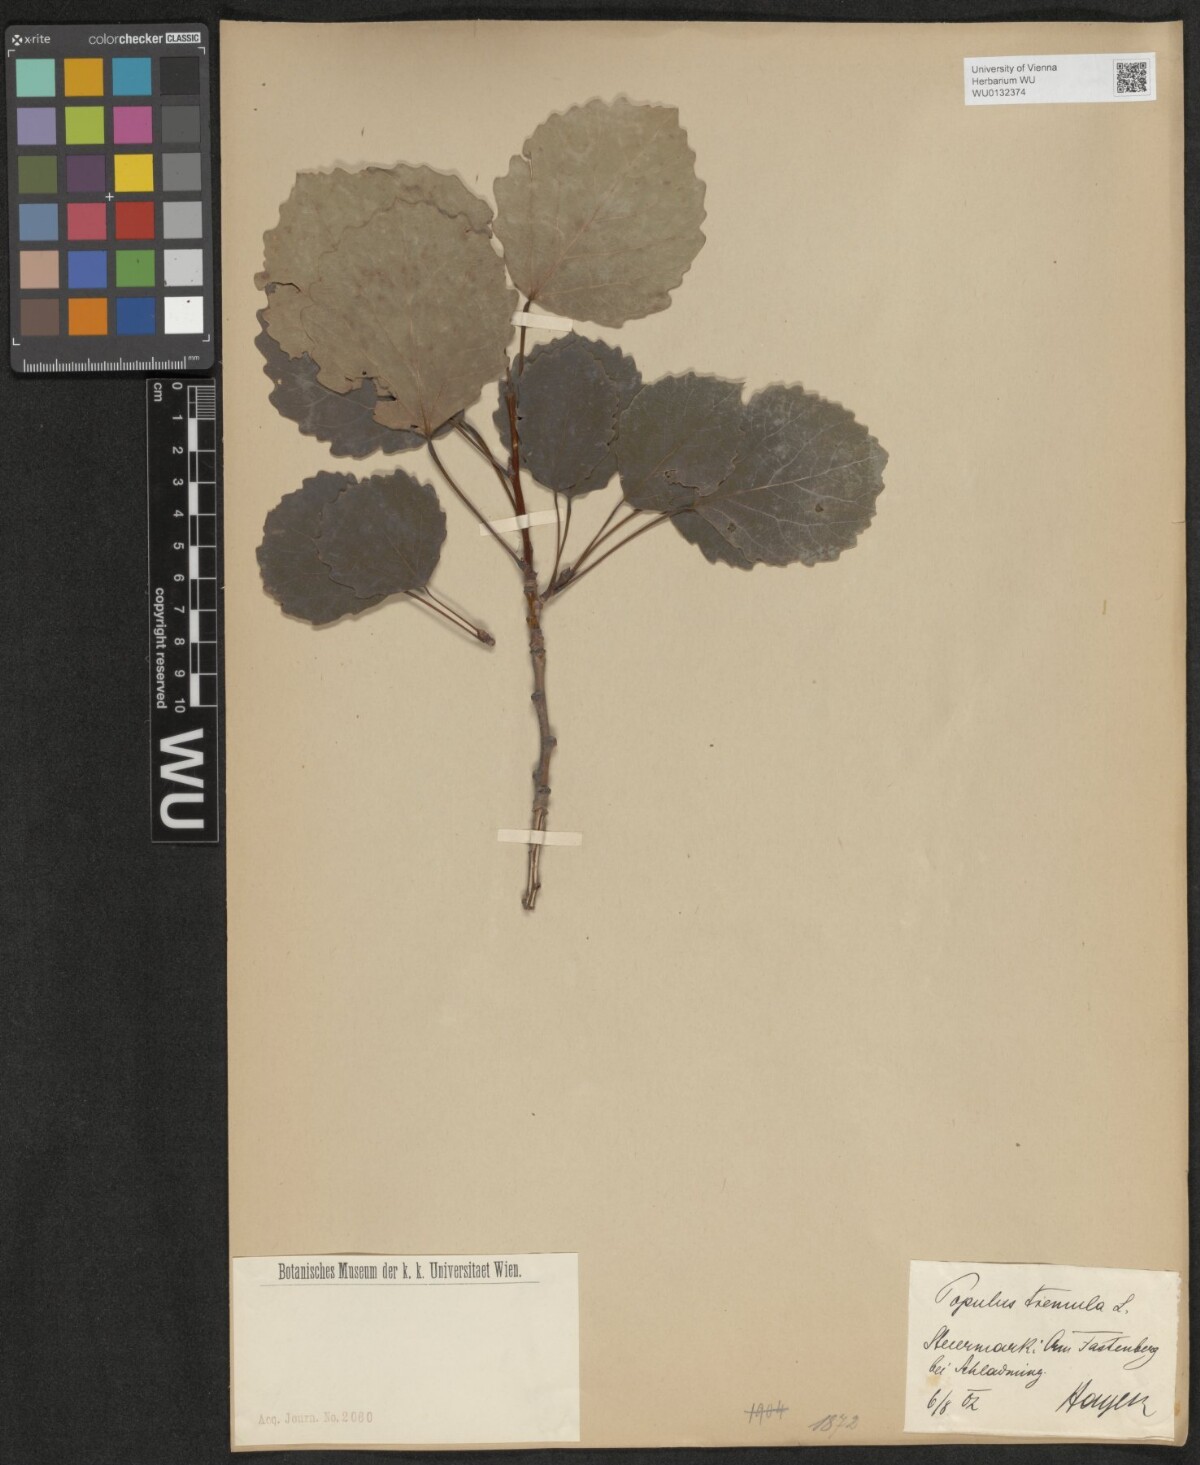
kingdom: Plantae
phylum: Tracheophyta
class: Magnoliopsida
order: Malpighiales
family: Salicaceae
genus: Populus
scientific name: Populus tremula
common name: European aspen
